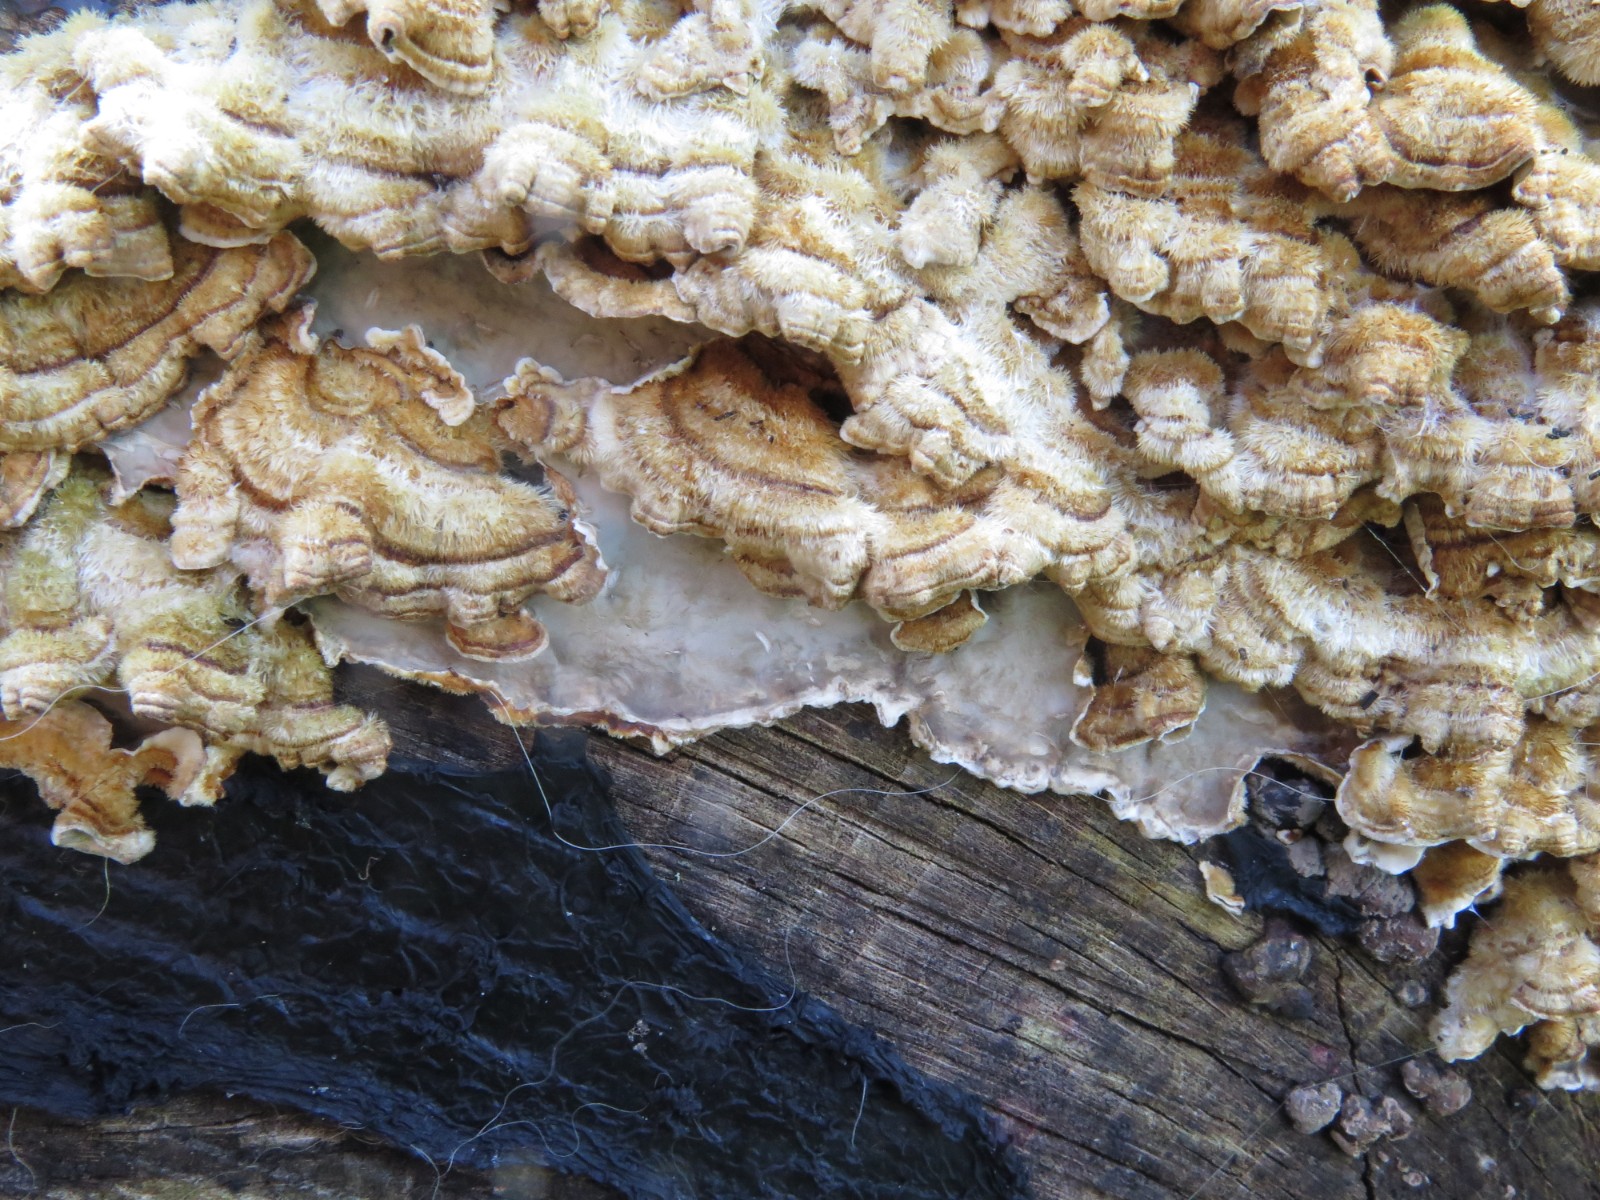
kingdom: Fungi
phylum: Basidiomycota
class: Agaricomycetes
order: Polyporales
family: Phanerochaetaceae
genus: Bjerkandera
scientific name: Bjerkandera adusta
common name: sveden sodporesvamp
